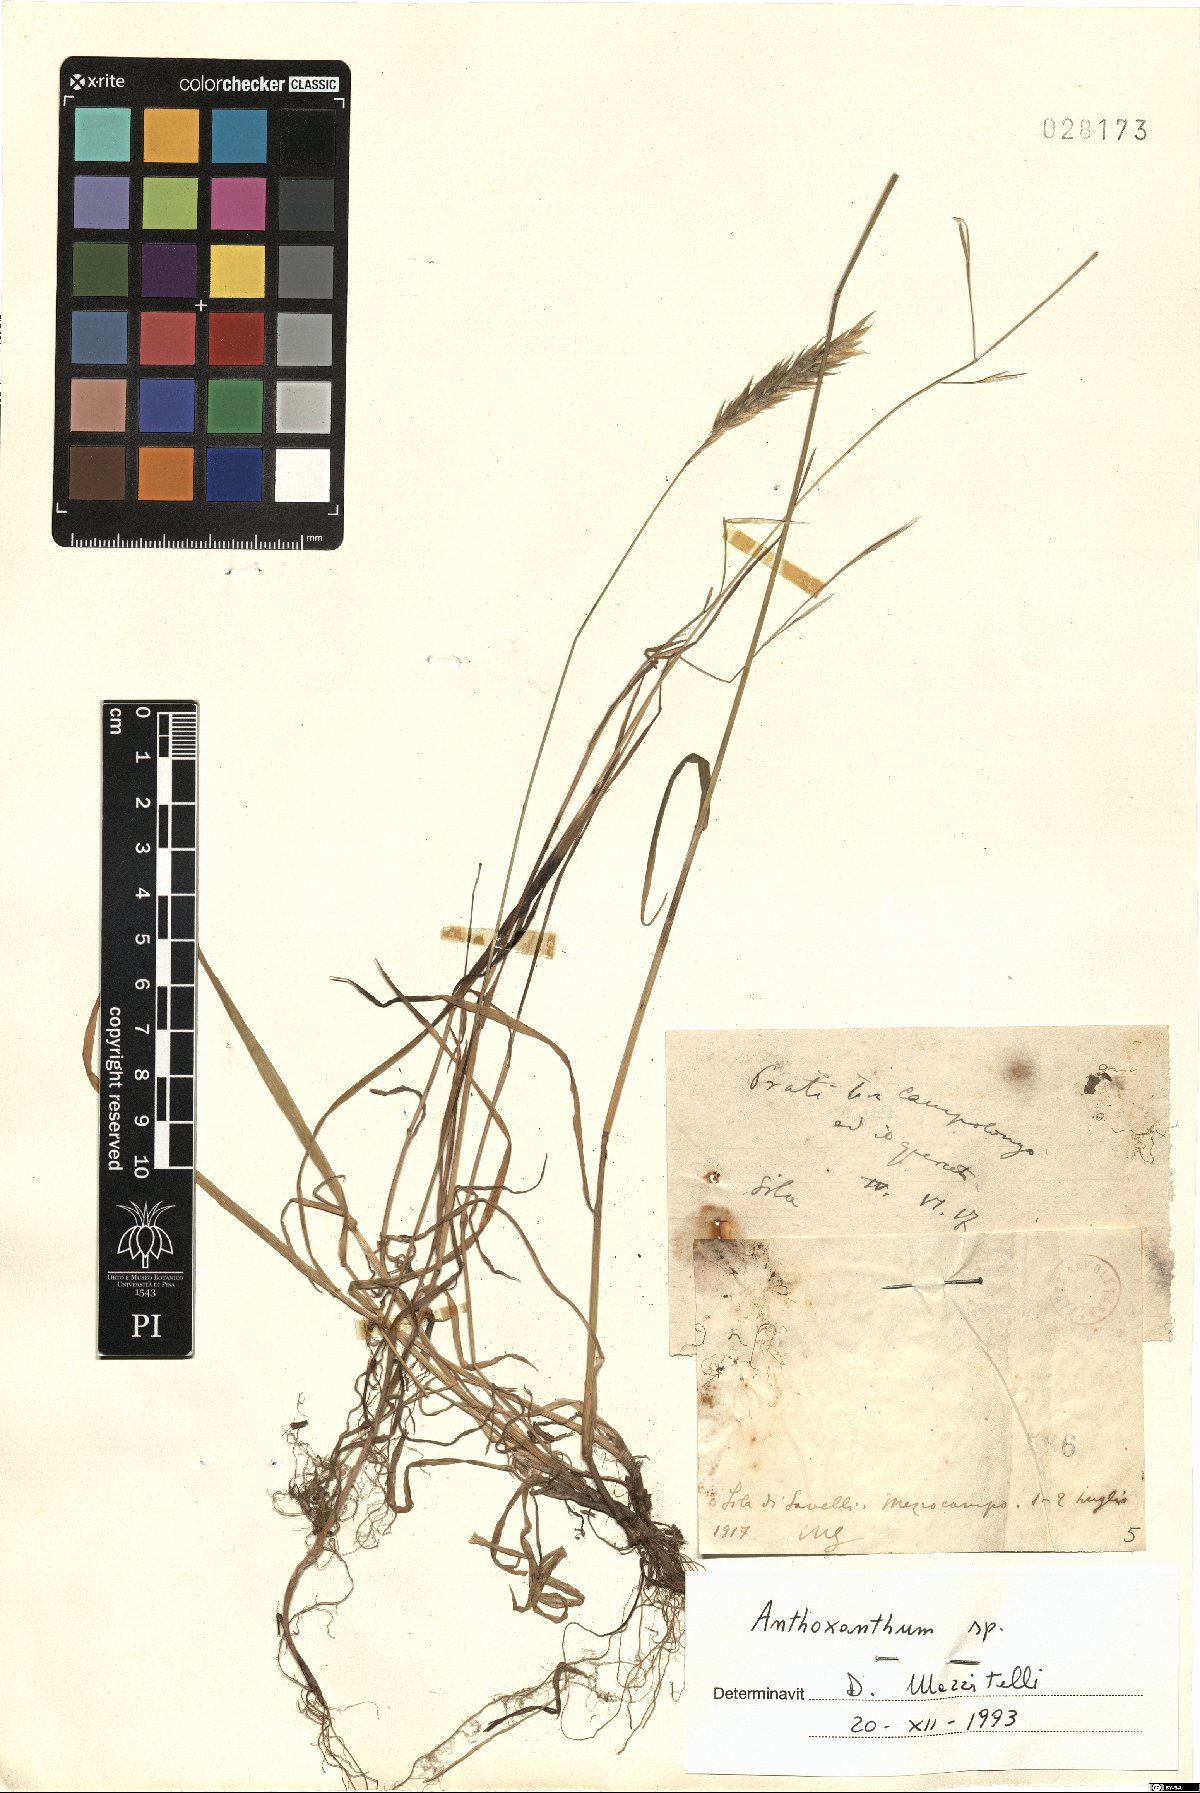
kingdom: Plantae
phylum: Tracheophyta
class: Liliopsida
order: Poales
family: Poaceae
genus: Anthoxanthum
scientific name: Anthoxanthum
